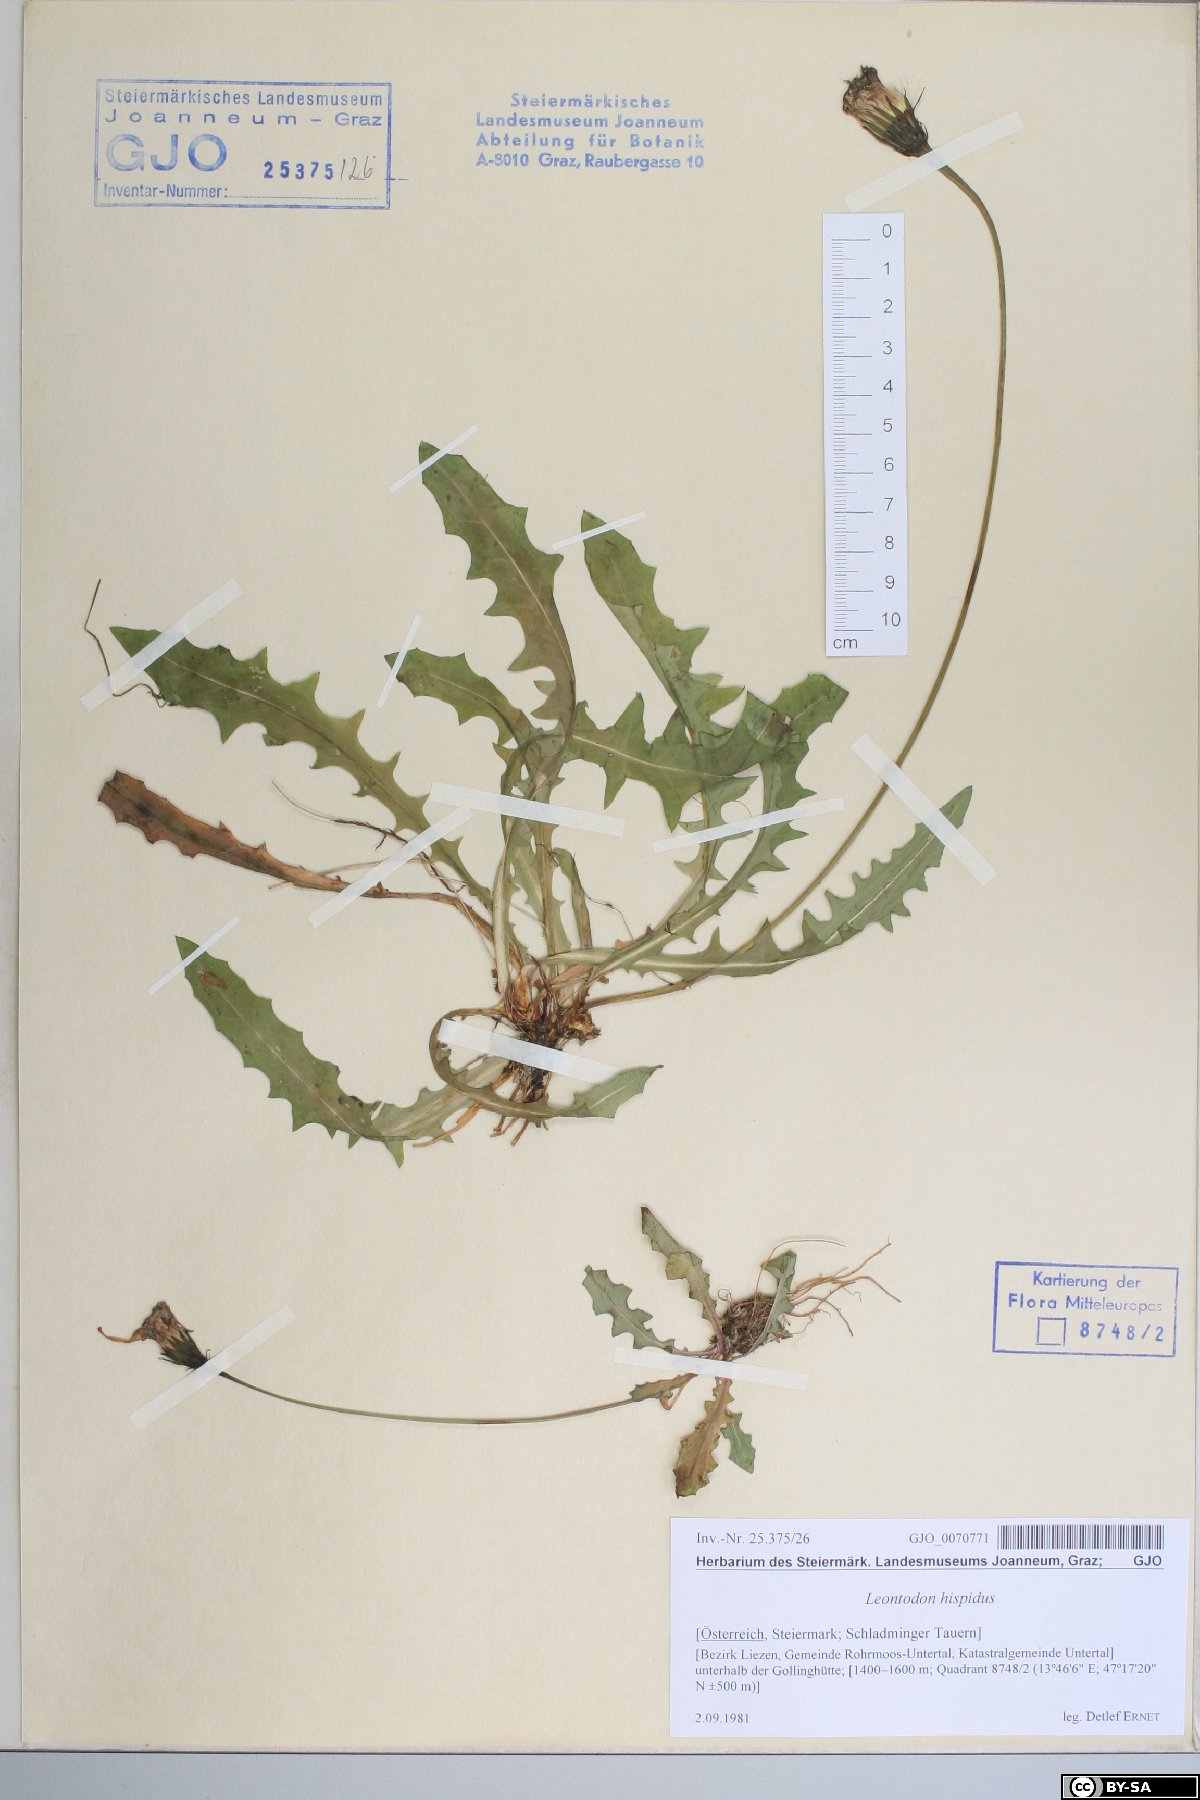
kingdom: Plantae
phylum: Tracheophyta
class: Magnoliopsida
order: Asterales
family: Asteraceae
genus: Leontodon
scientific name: Leontodon hispidus
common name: Rough hawkbit
